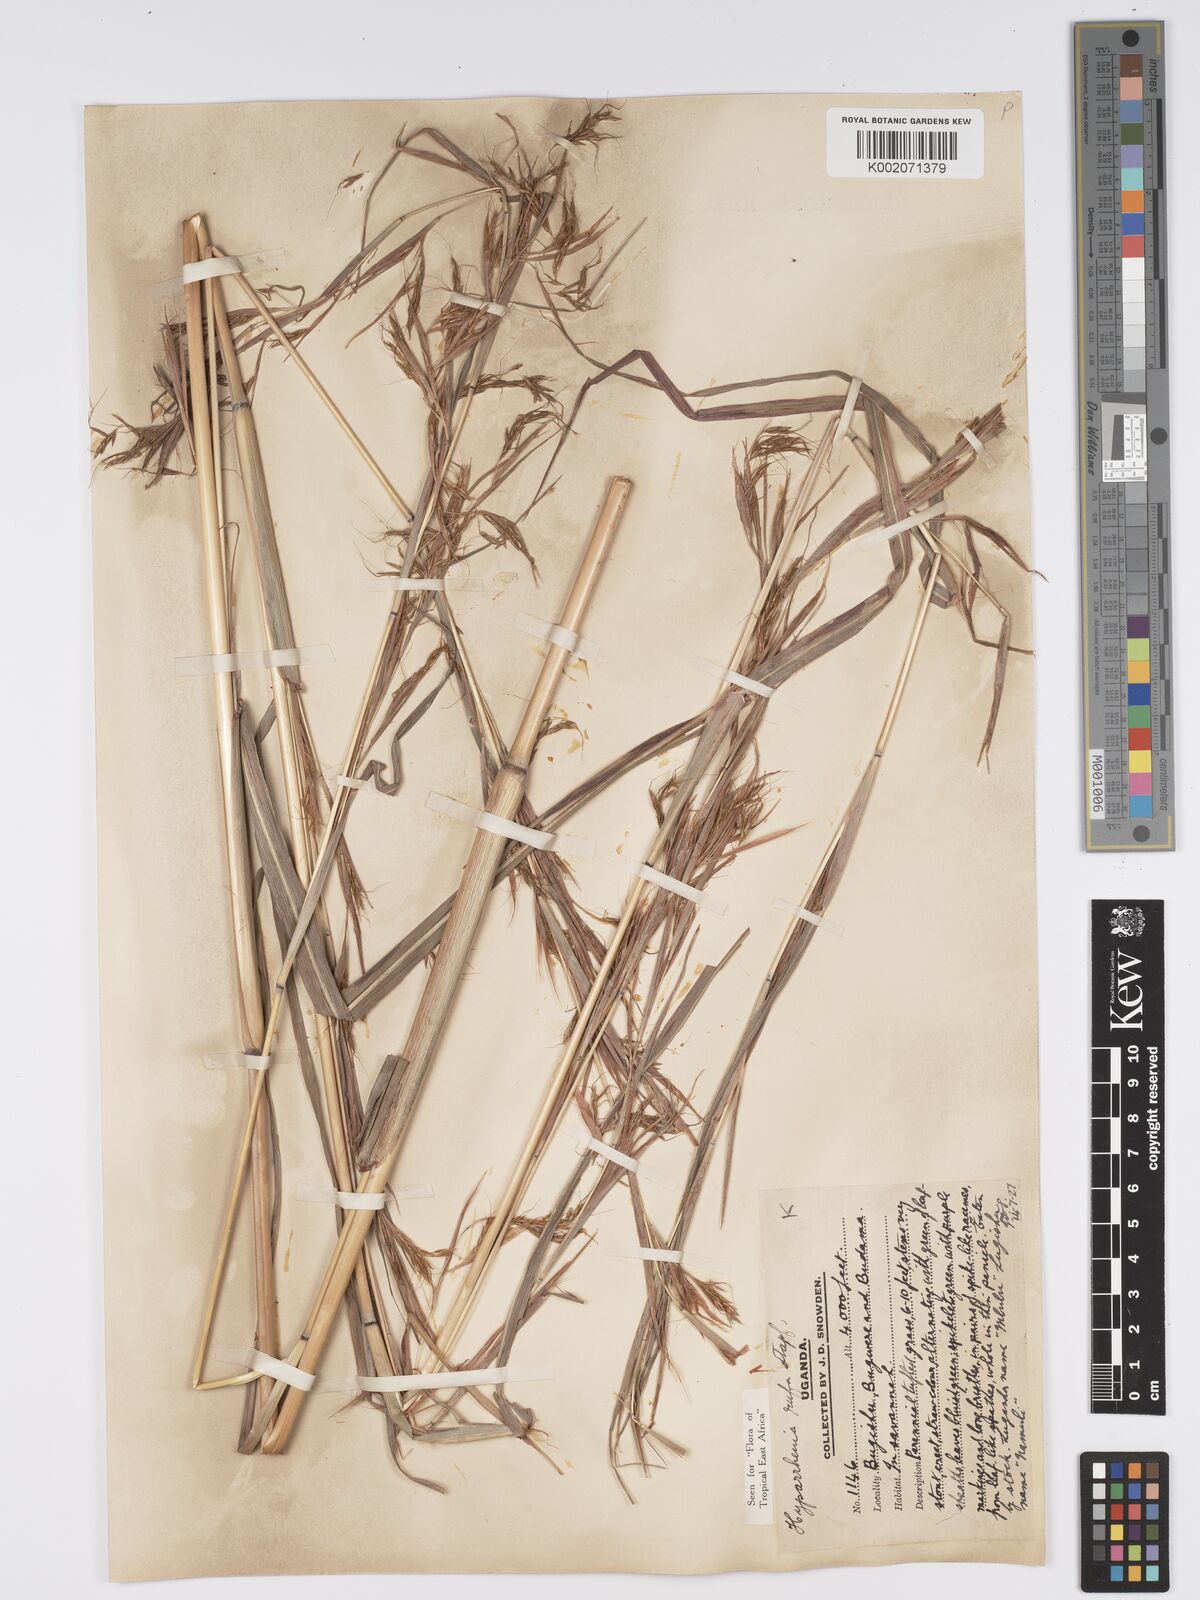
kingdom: Plantae
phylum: Tracheophyta
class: Liliopsida
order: Poales
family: Poaceae
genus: Hyparrhenia
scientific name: Hyparrhenia rufa
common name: Jaraguagrass
